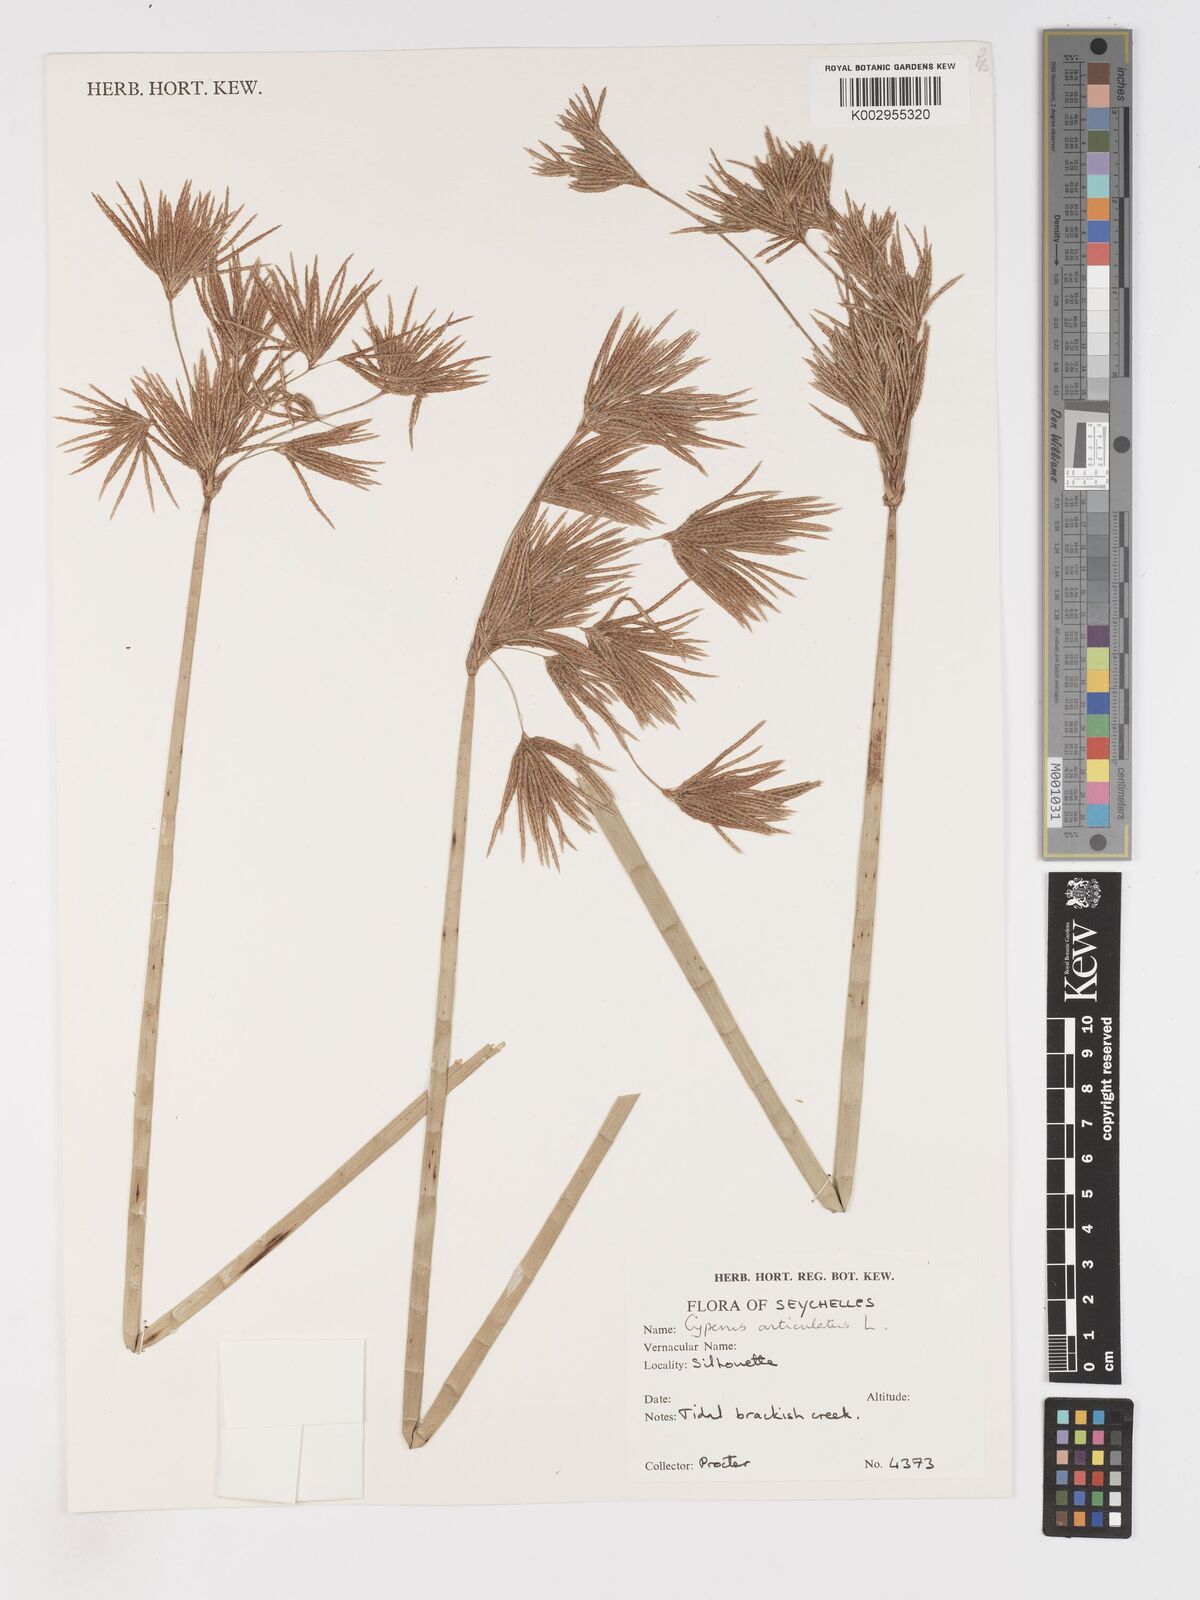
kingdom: Plantae
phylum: Tracheophyta
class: Liliopsida
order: Poales
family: Cyperaceae
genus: Cyperus
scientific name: Cyperus articulatus
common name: Jointed flatsedge
